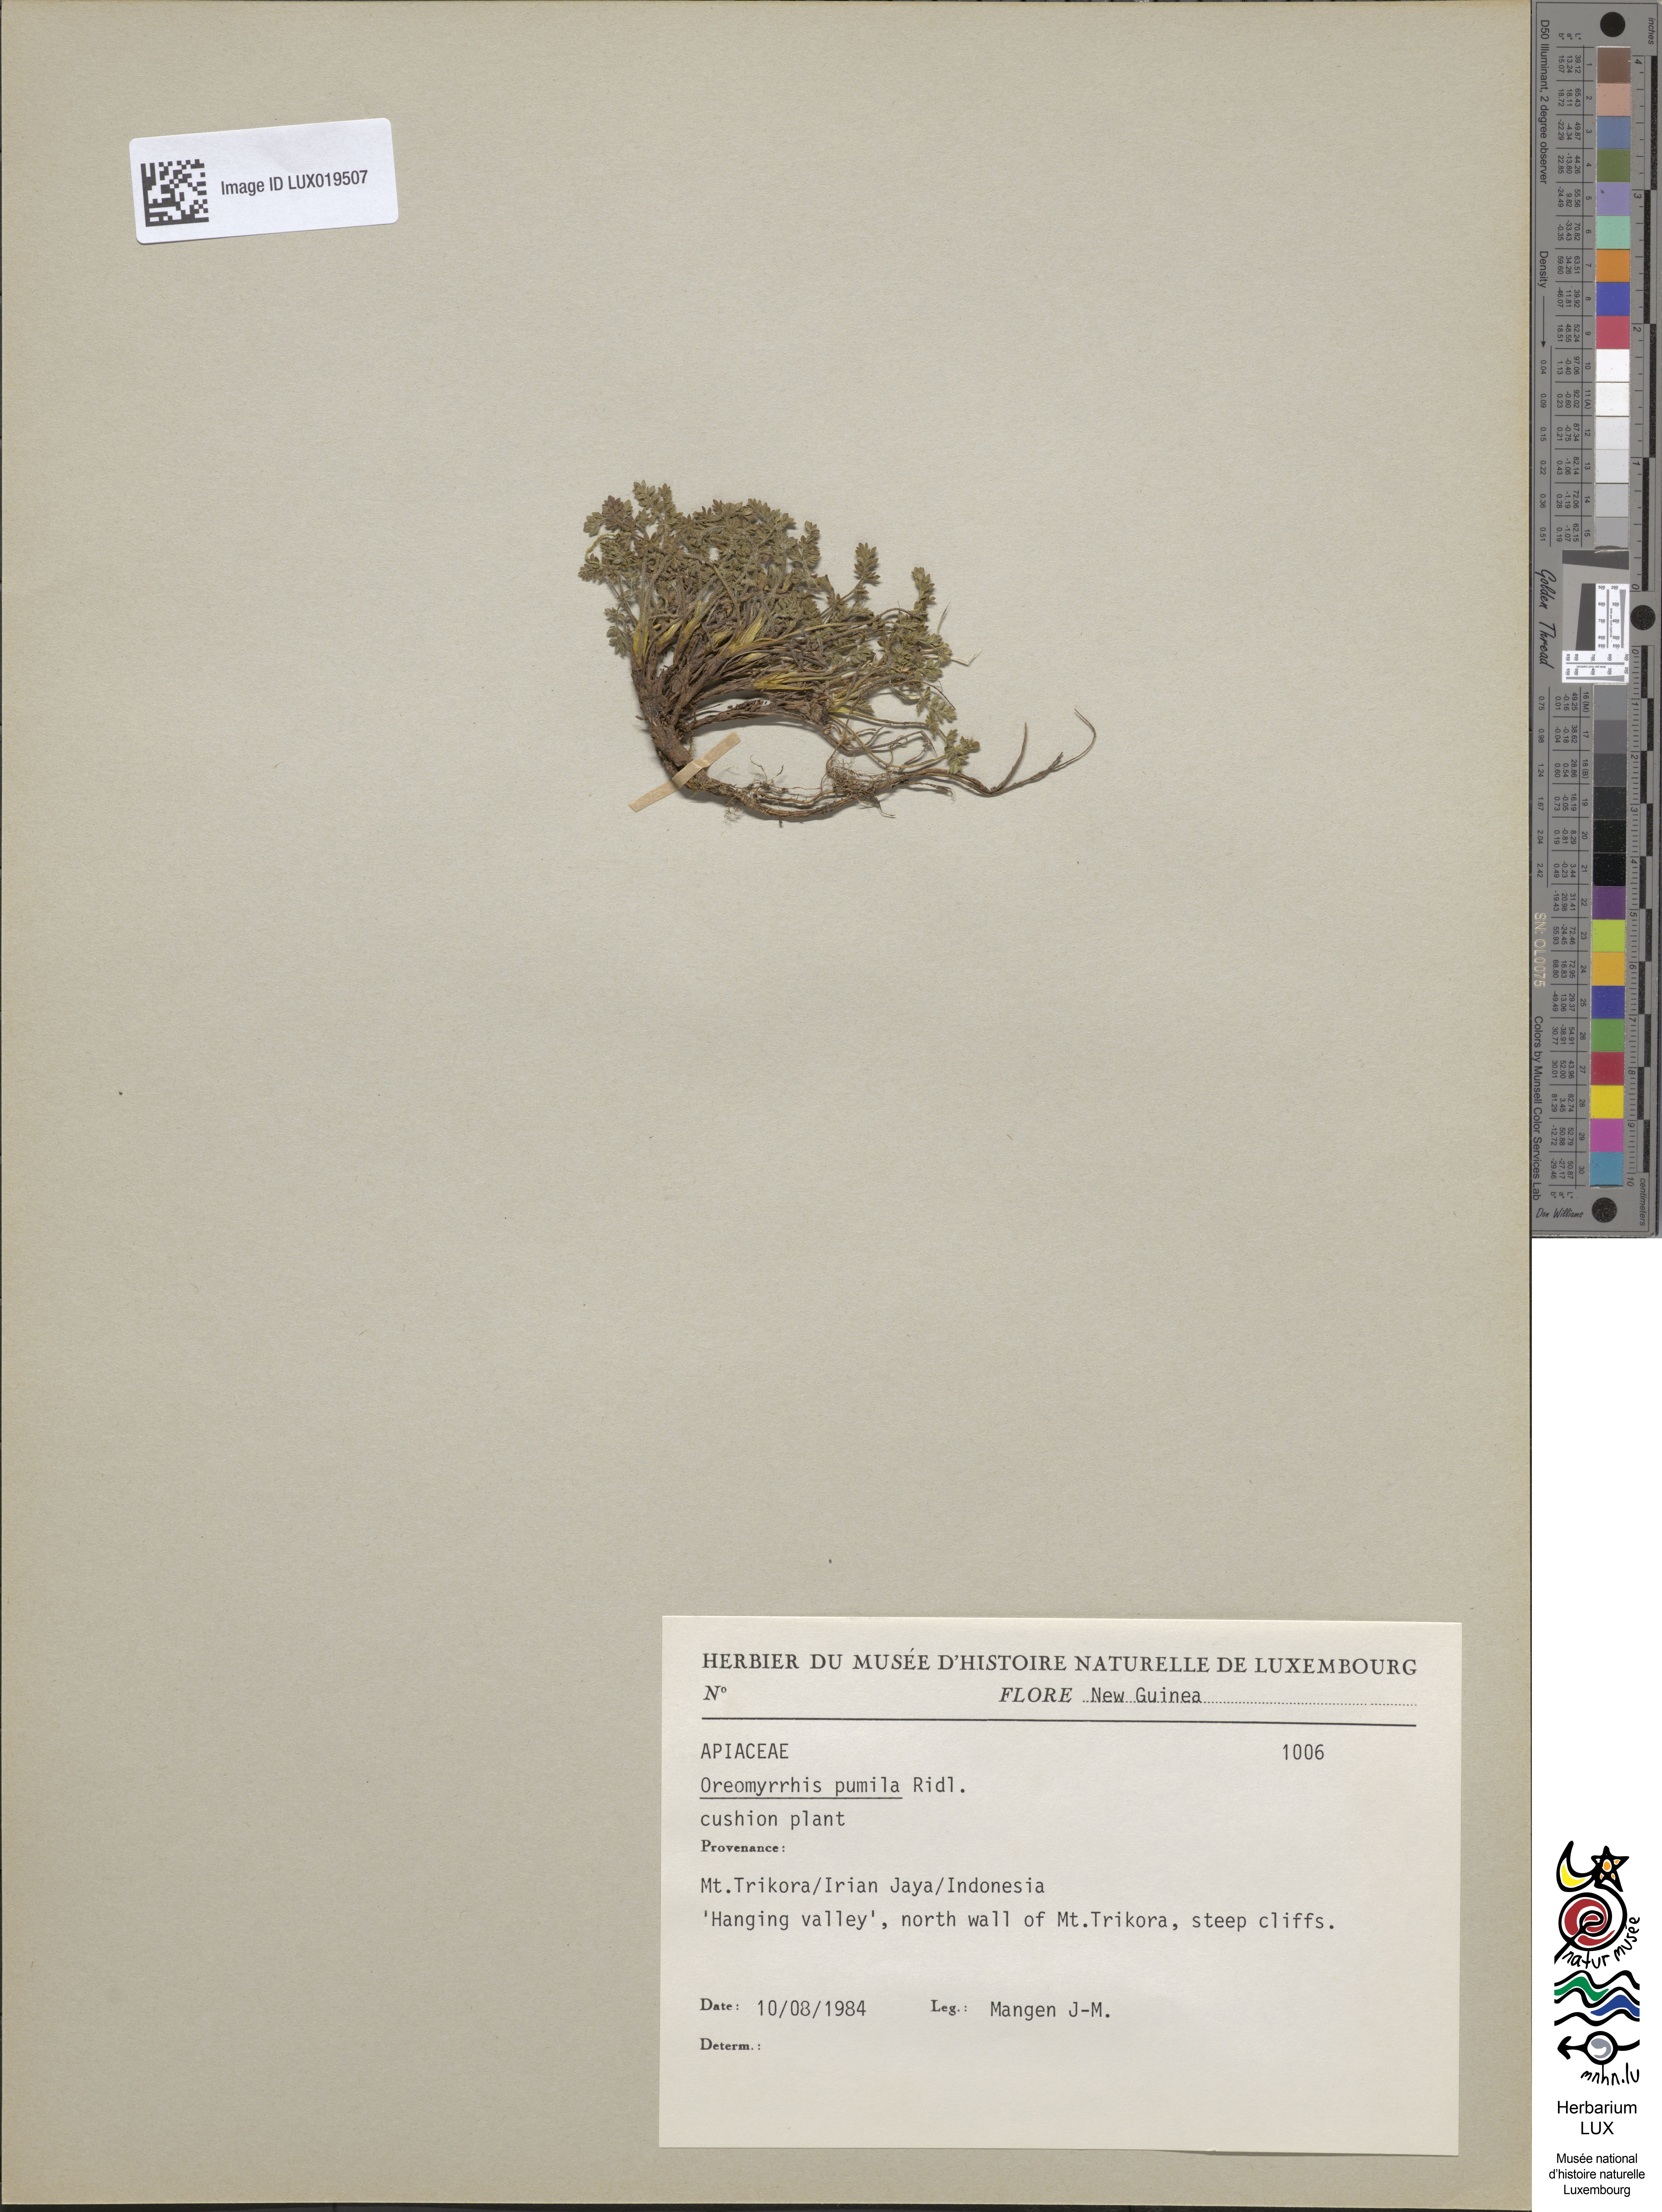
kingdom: Plantae
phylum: Tracheophyta
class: Magnoliopsida
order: Apiales
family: Apiaceae
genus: Chaerophyllum
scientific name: Chaerophyllum pumilum
